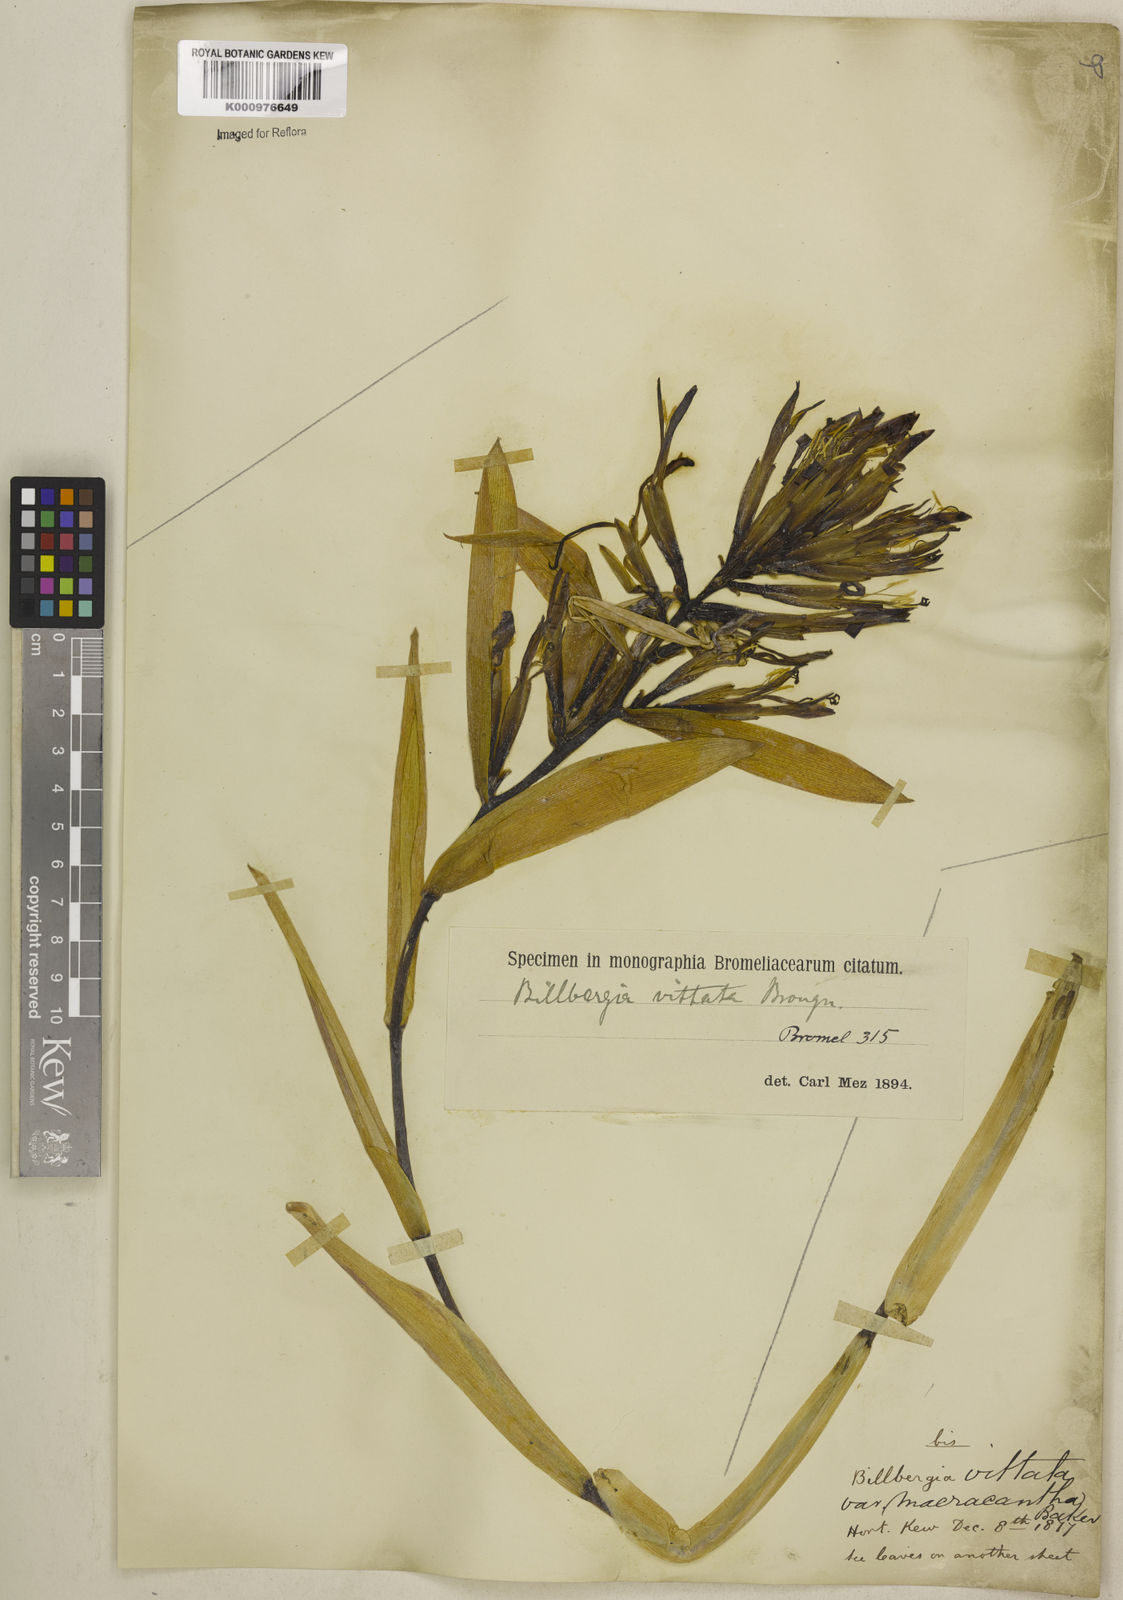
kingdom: Plantae
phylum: Tracheophyta
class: Liliopsida
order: Poales
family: Bromeliaceae
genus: Billbergia
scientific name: Billbergia vittata
